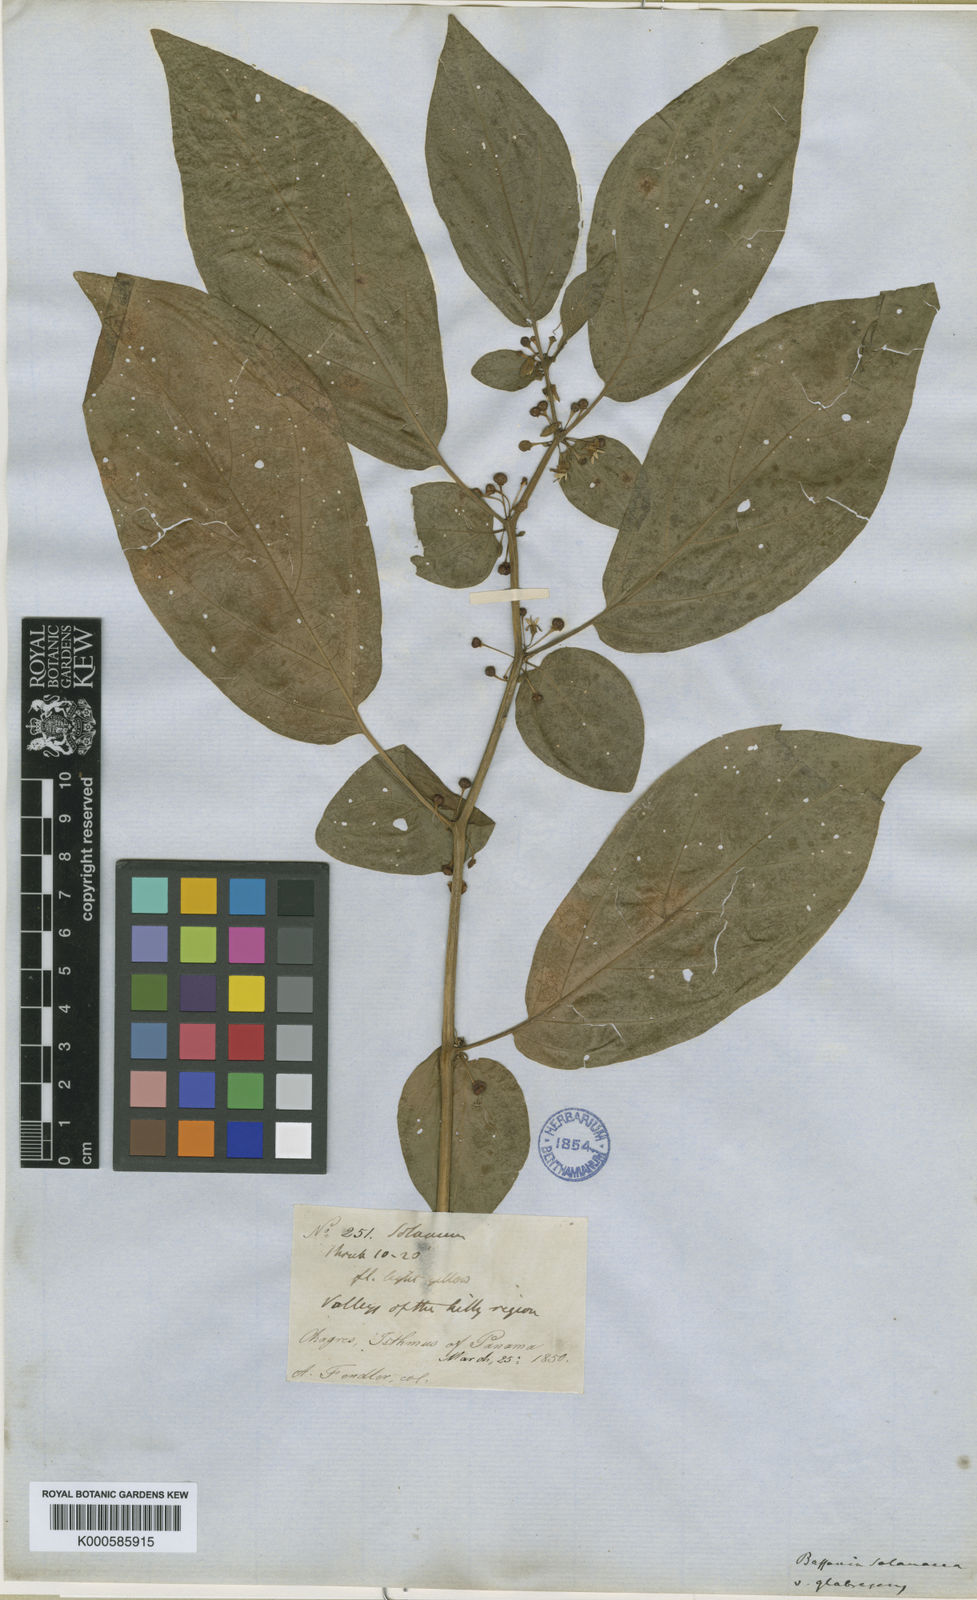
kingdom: Plantae
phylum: Tracheophyta
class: Magnoliopsida
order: Solanales
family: Solanaceae
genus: Witheringia
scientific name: Witheringia
